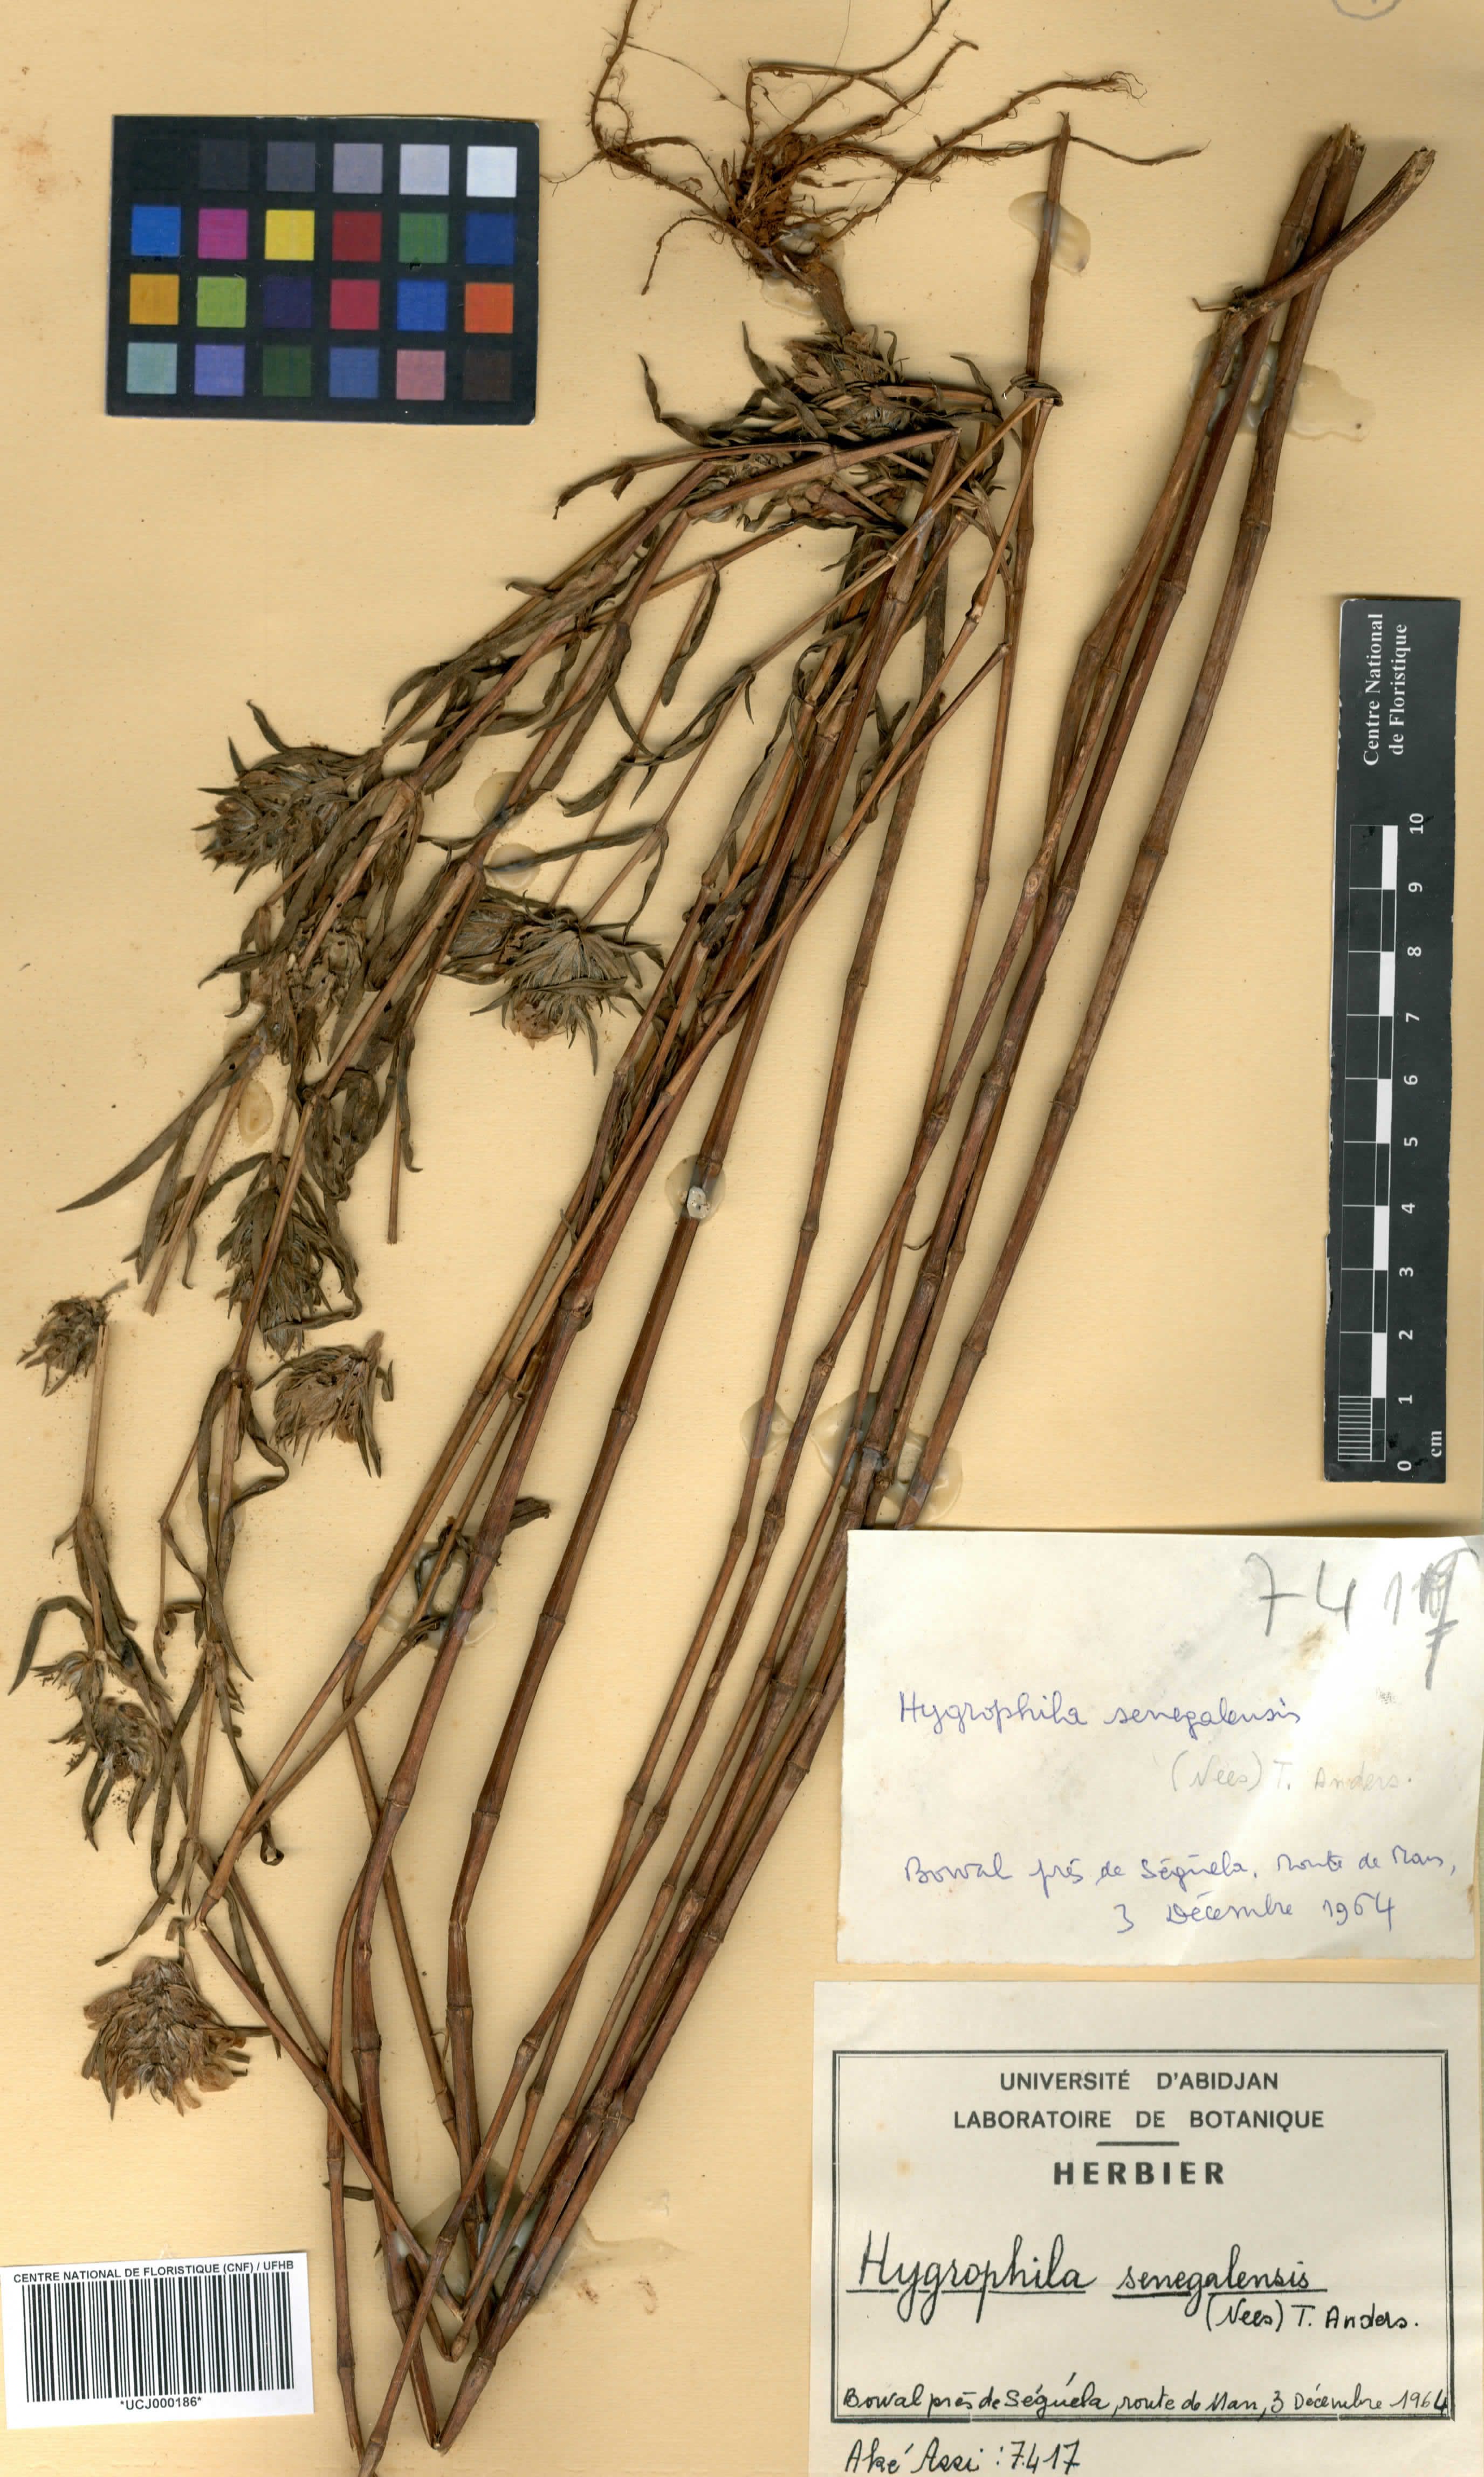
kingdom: Plantae
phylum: Tracheophyta
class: Magnoliopsida
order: Lamiales
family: Acanthaceae
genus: Hygrophila
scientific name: Hygrophila micrantha
